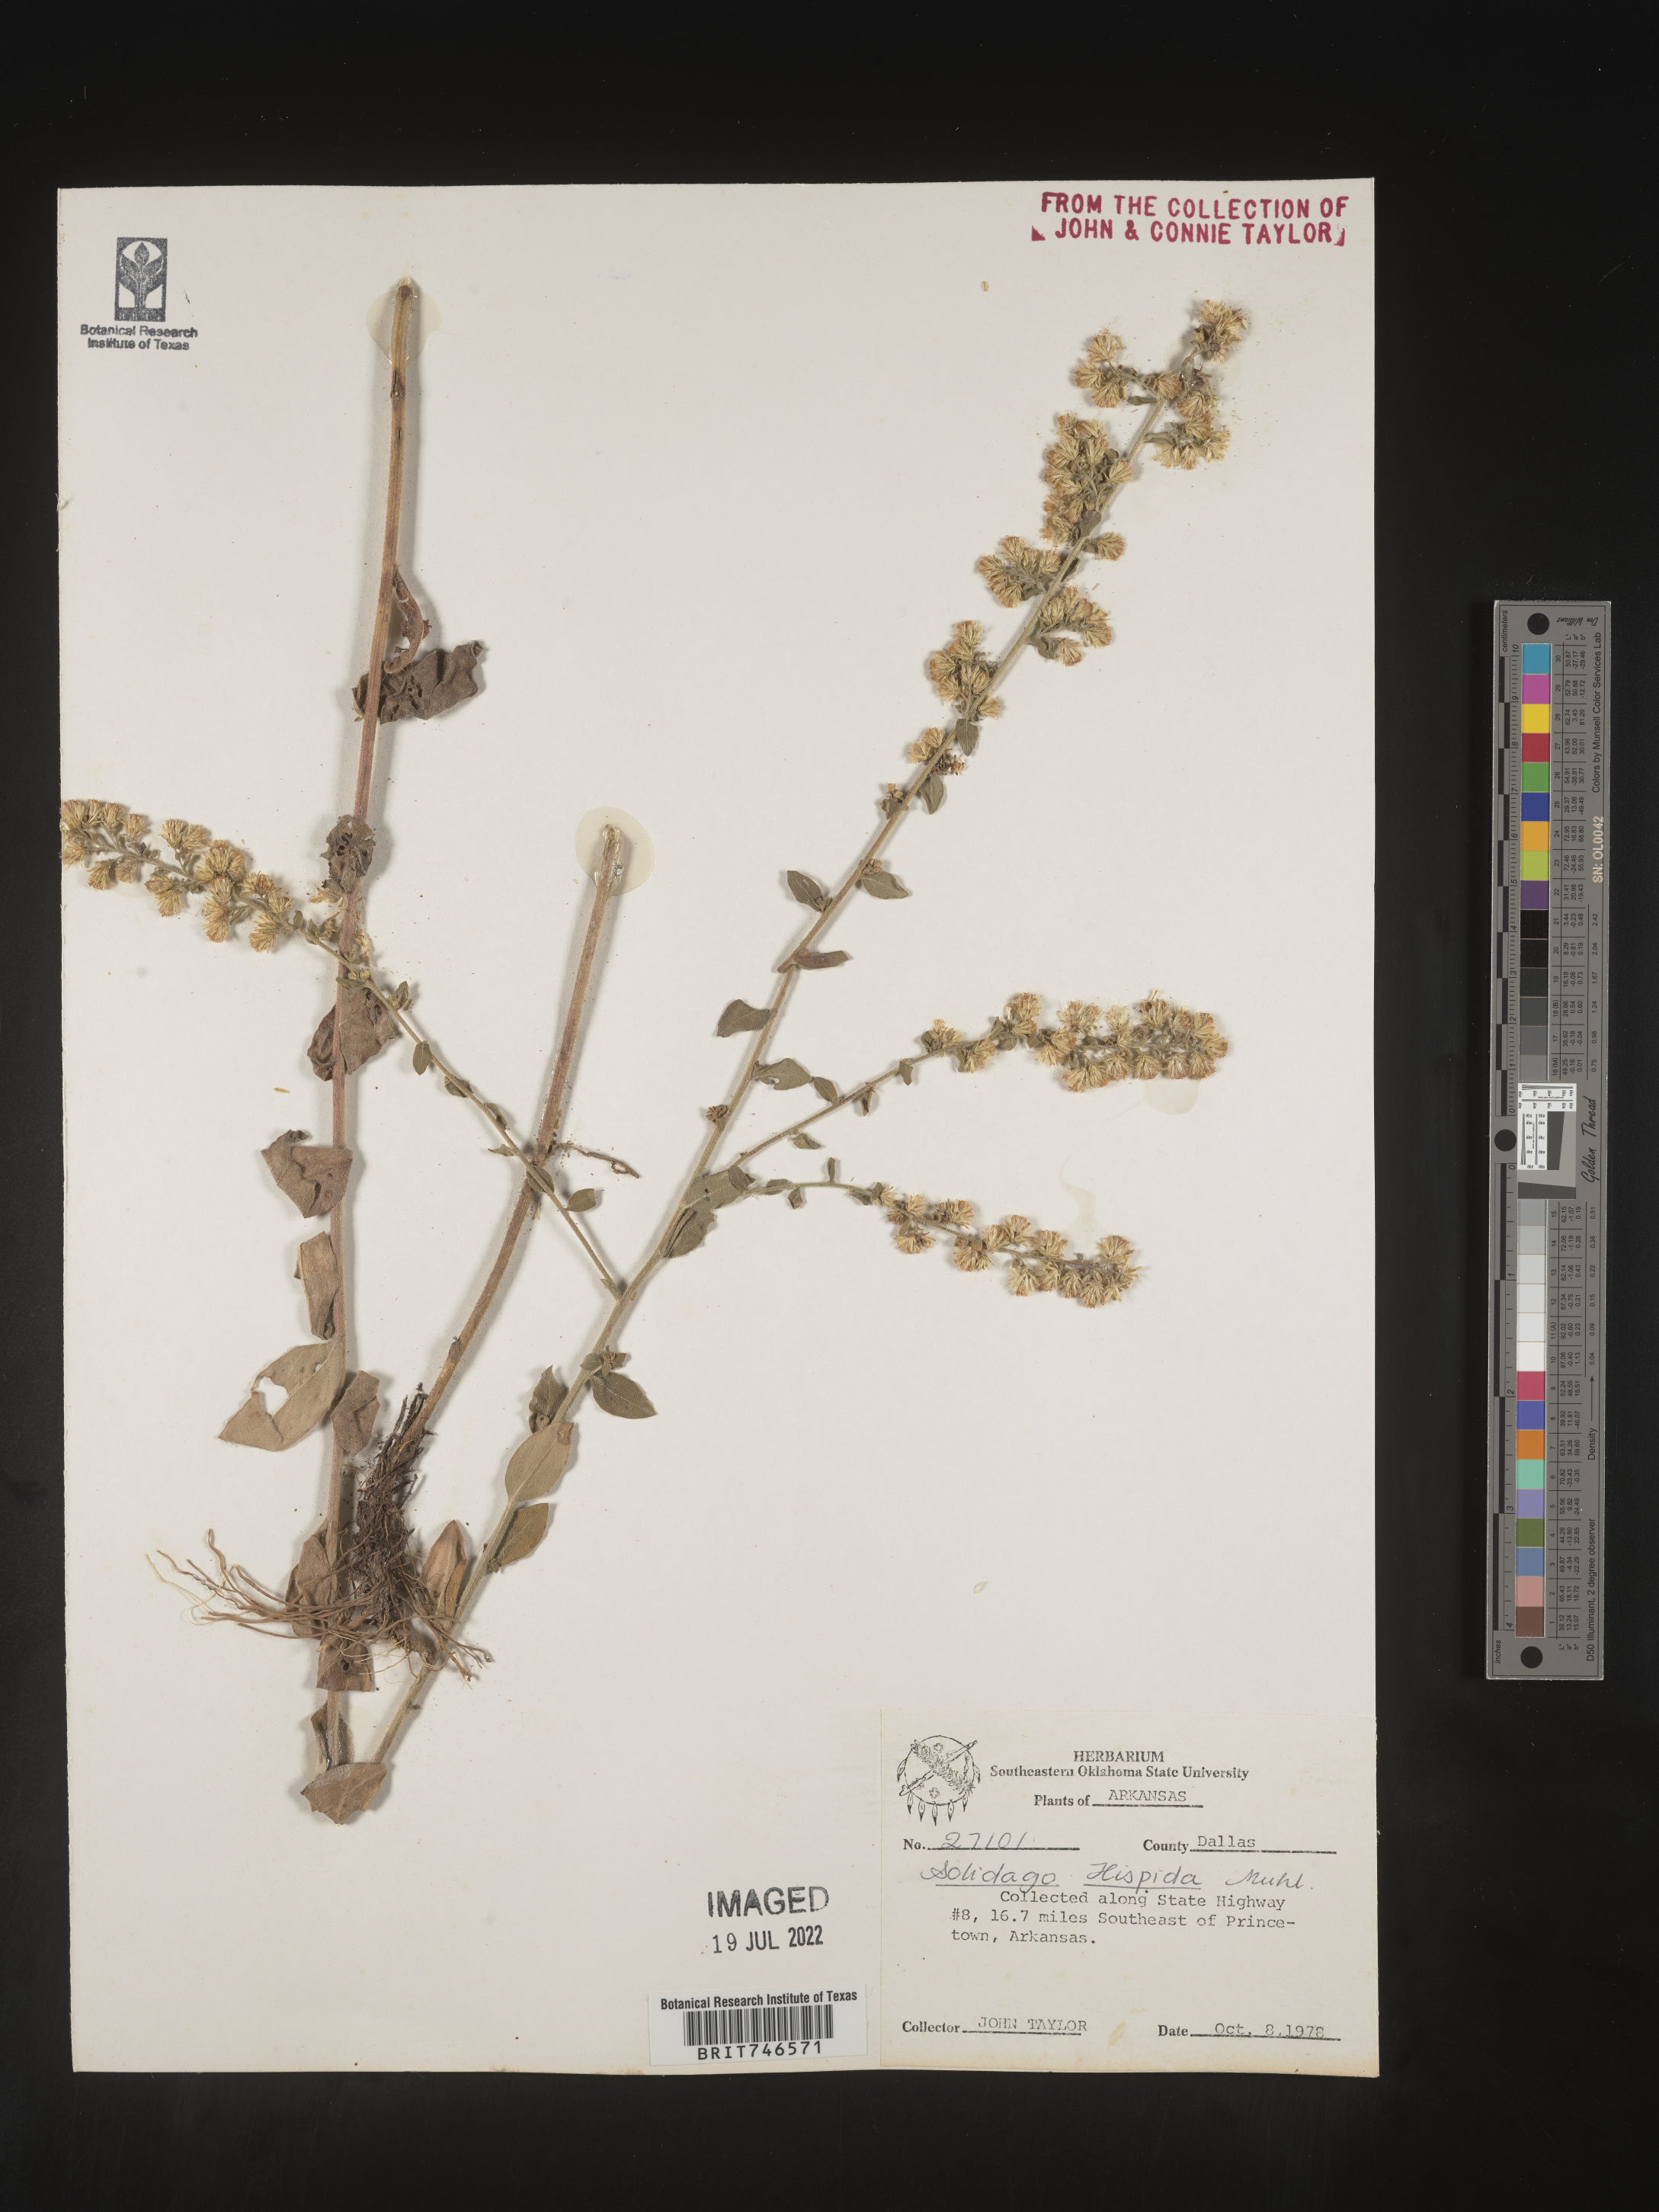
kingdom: Plantae
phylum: Tracheophyta
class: Magnoliopsida
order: Asterales
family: Asteraceae
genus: Solidago
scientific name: Solidago hispida
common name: Hairy goldenrod
